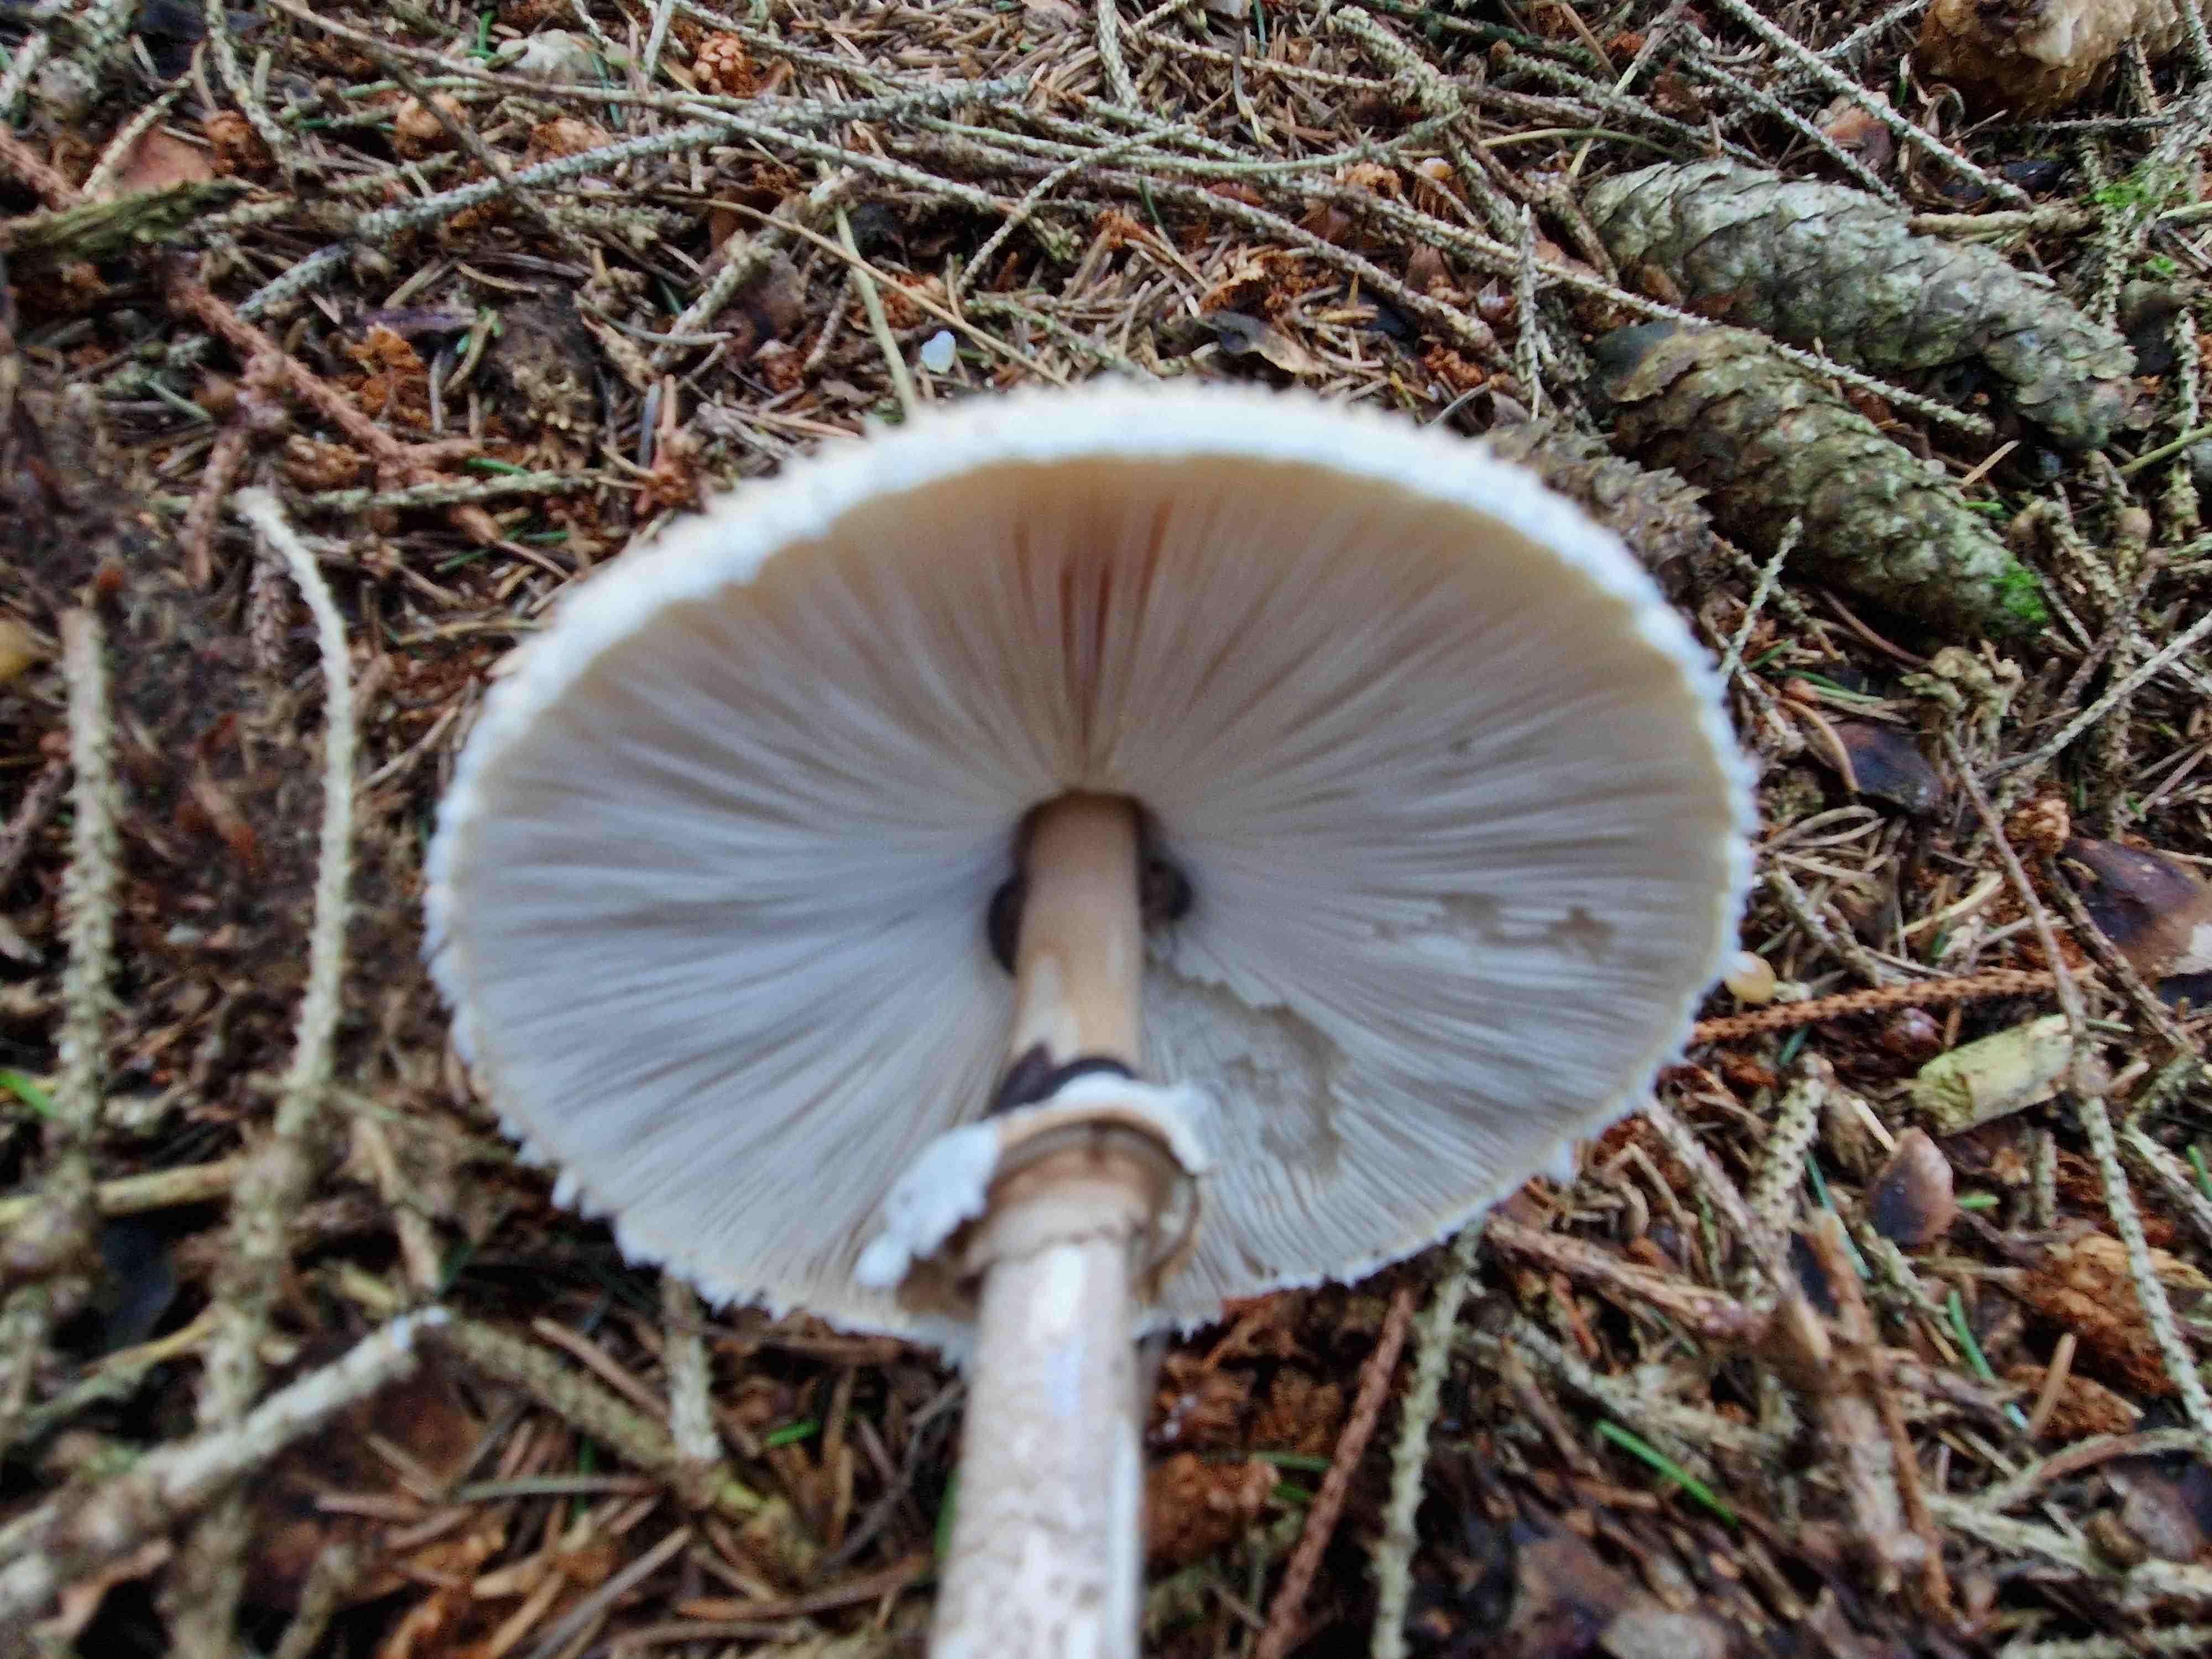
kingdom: Fungi
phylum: Basidiomycota
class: Agaricomycetes
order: Agaricales
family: Agaricaceae
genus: Chlorophyllum
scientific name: Chlorophyllum olivieri
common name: almindelig rabarberhat
